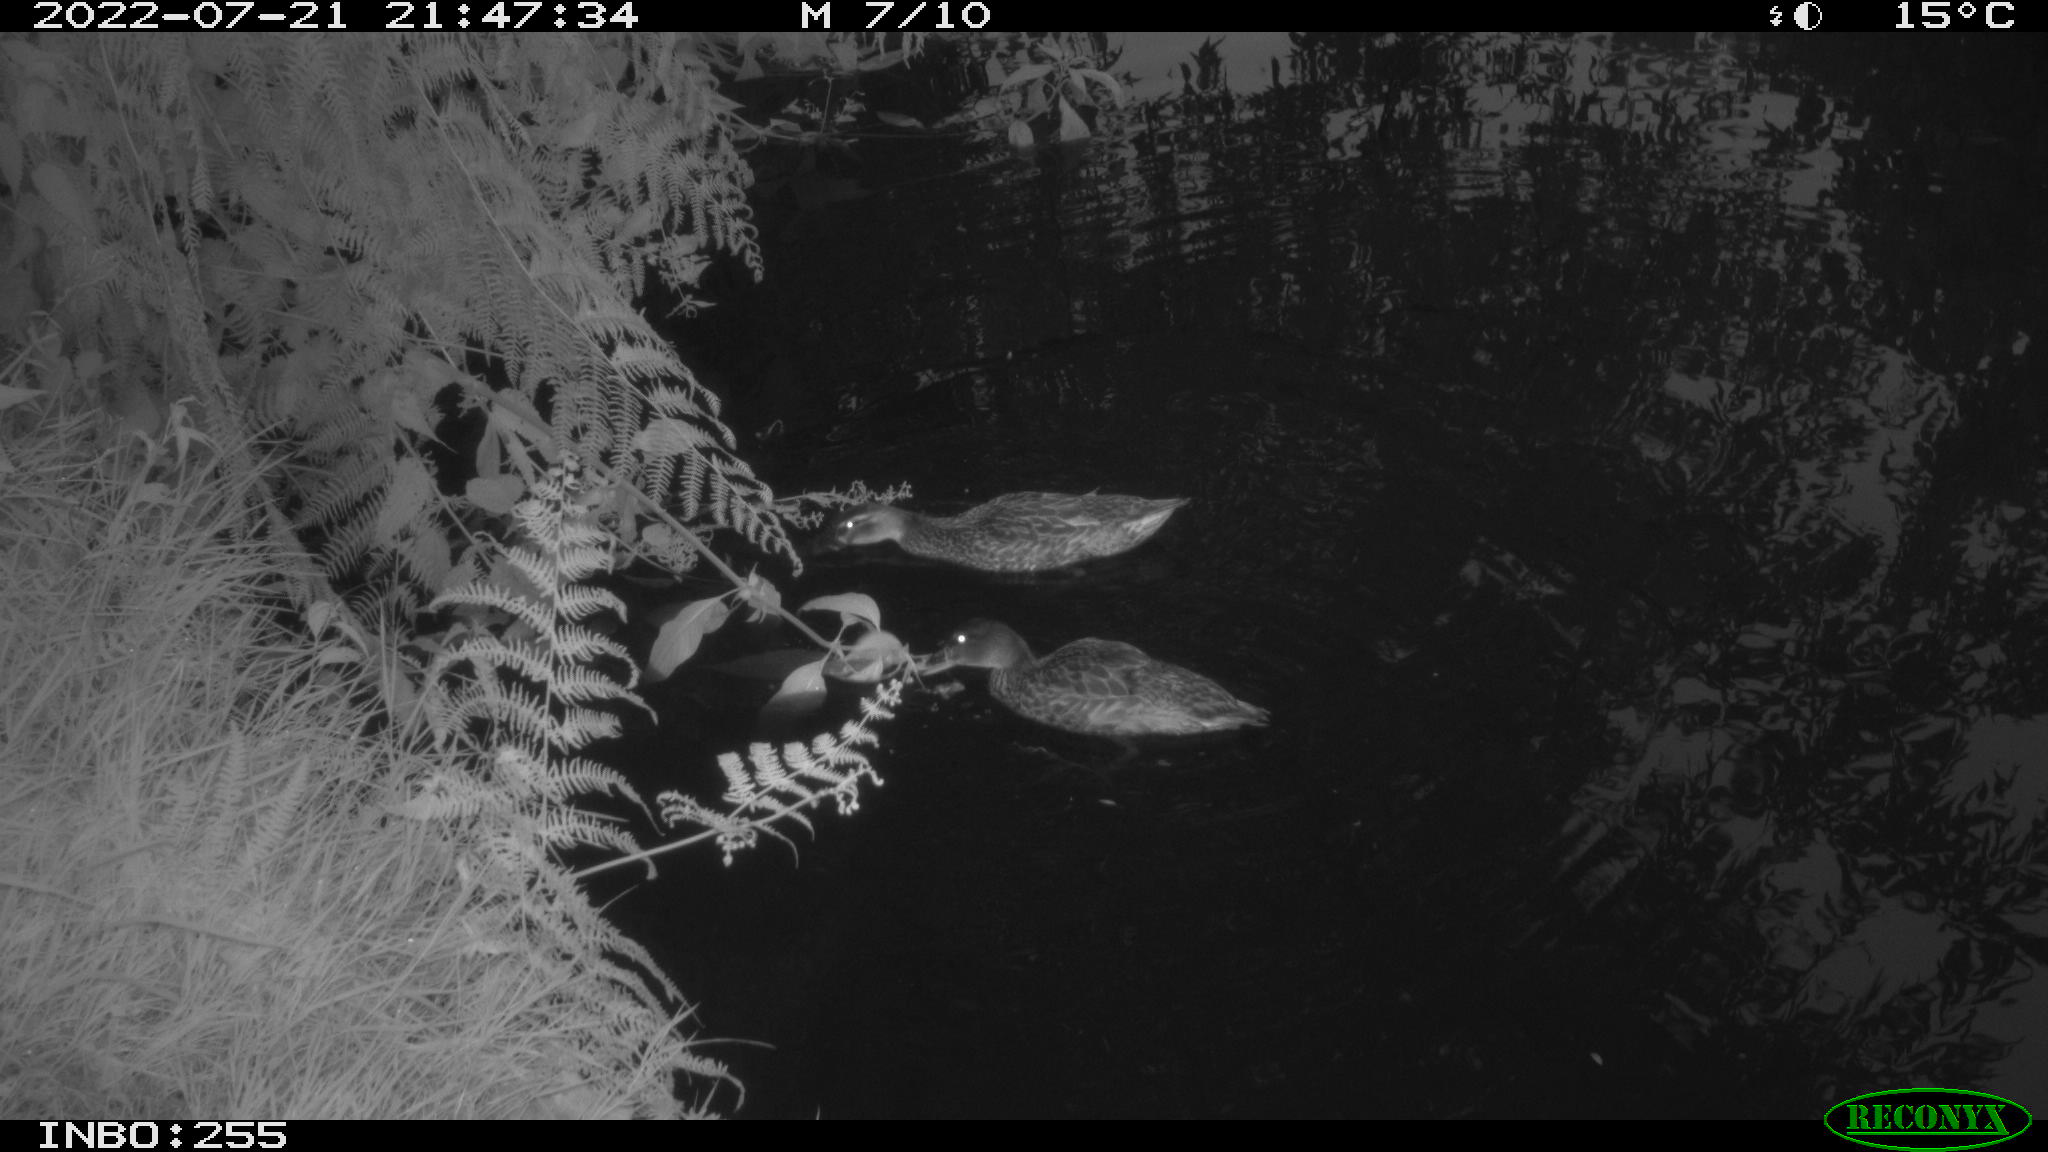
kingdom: Animalia
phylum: Chordata
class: Aves
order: Anseriformes
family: Anatidae
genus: Anas
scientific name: Anas platyrhynchos
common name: Mallard
